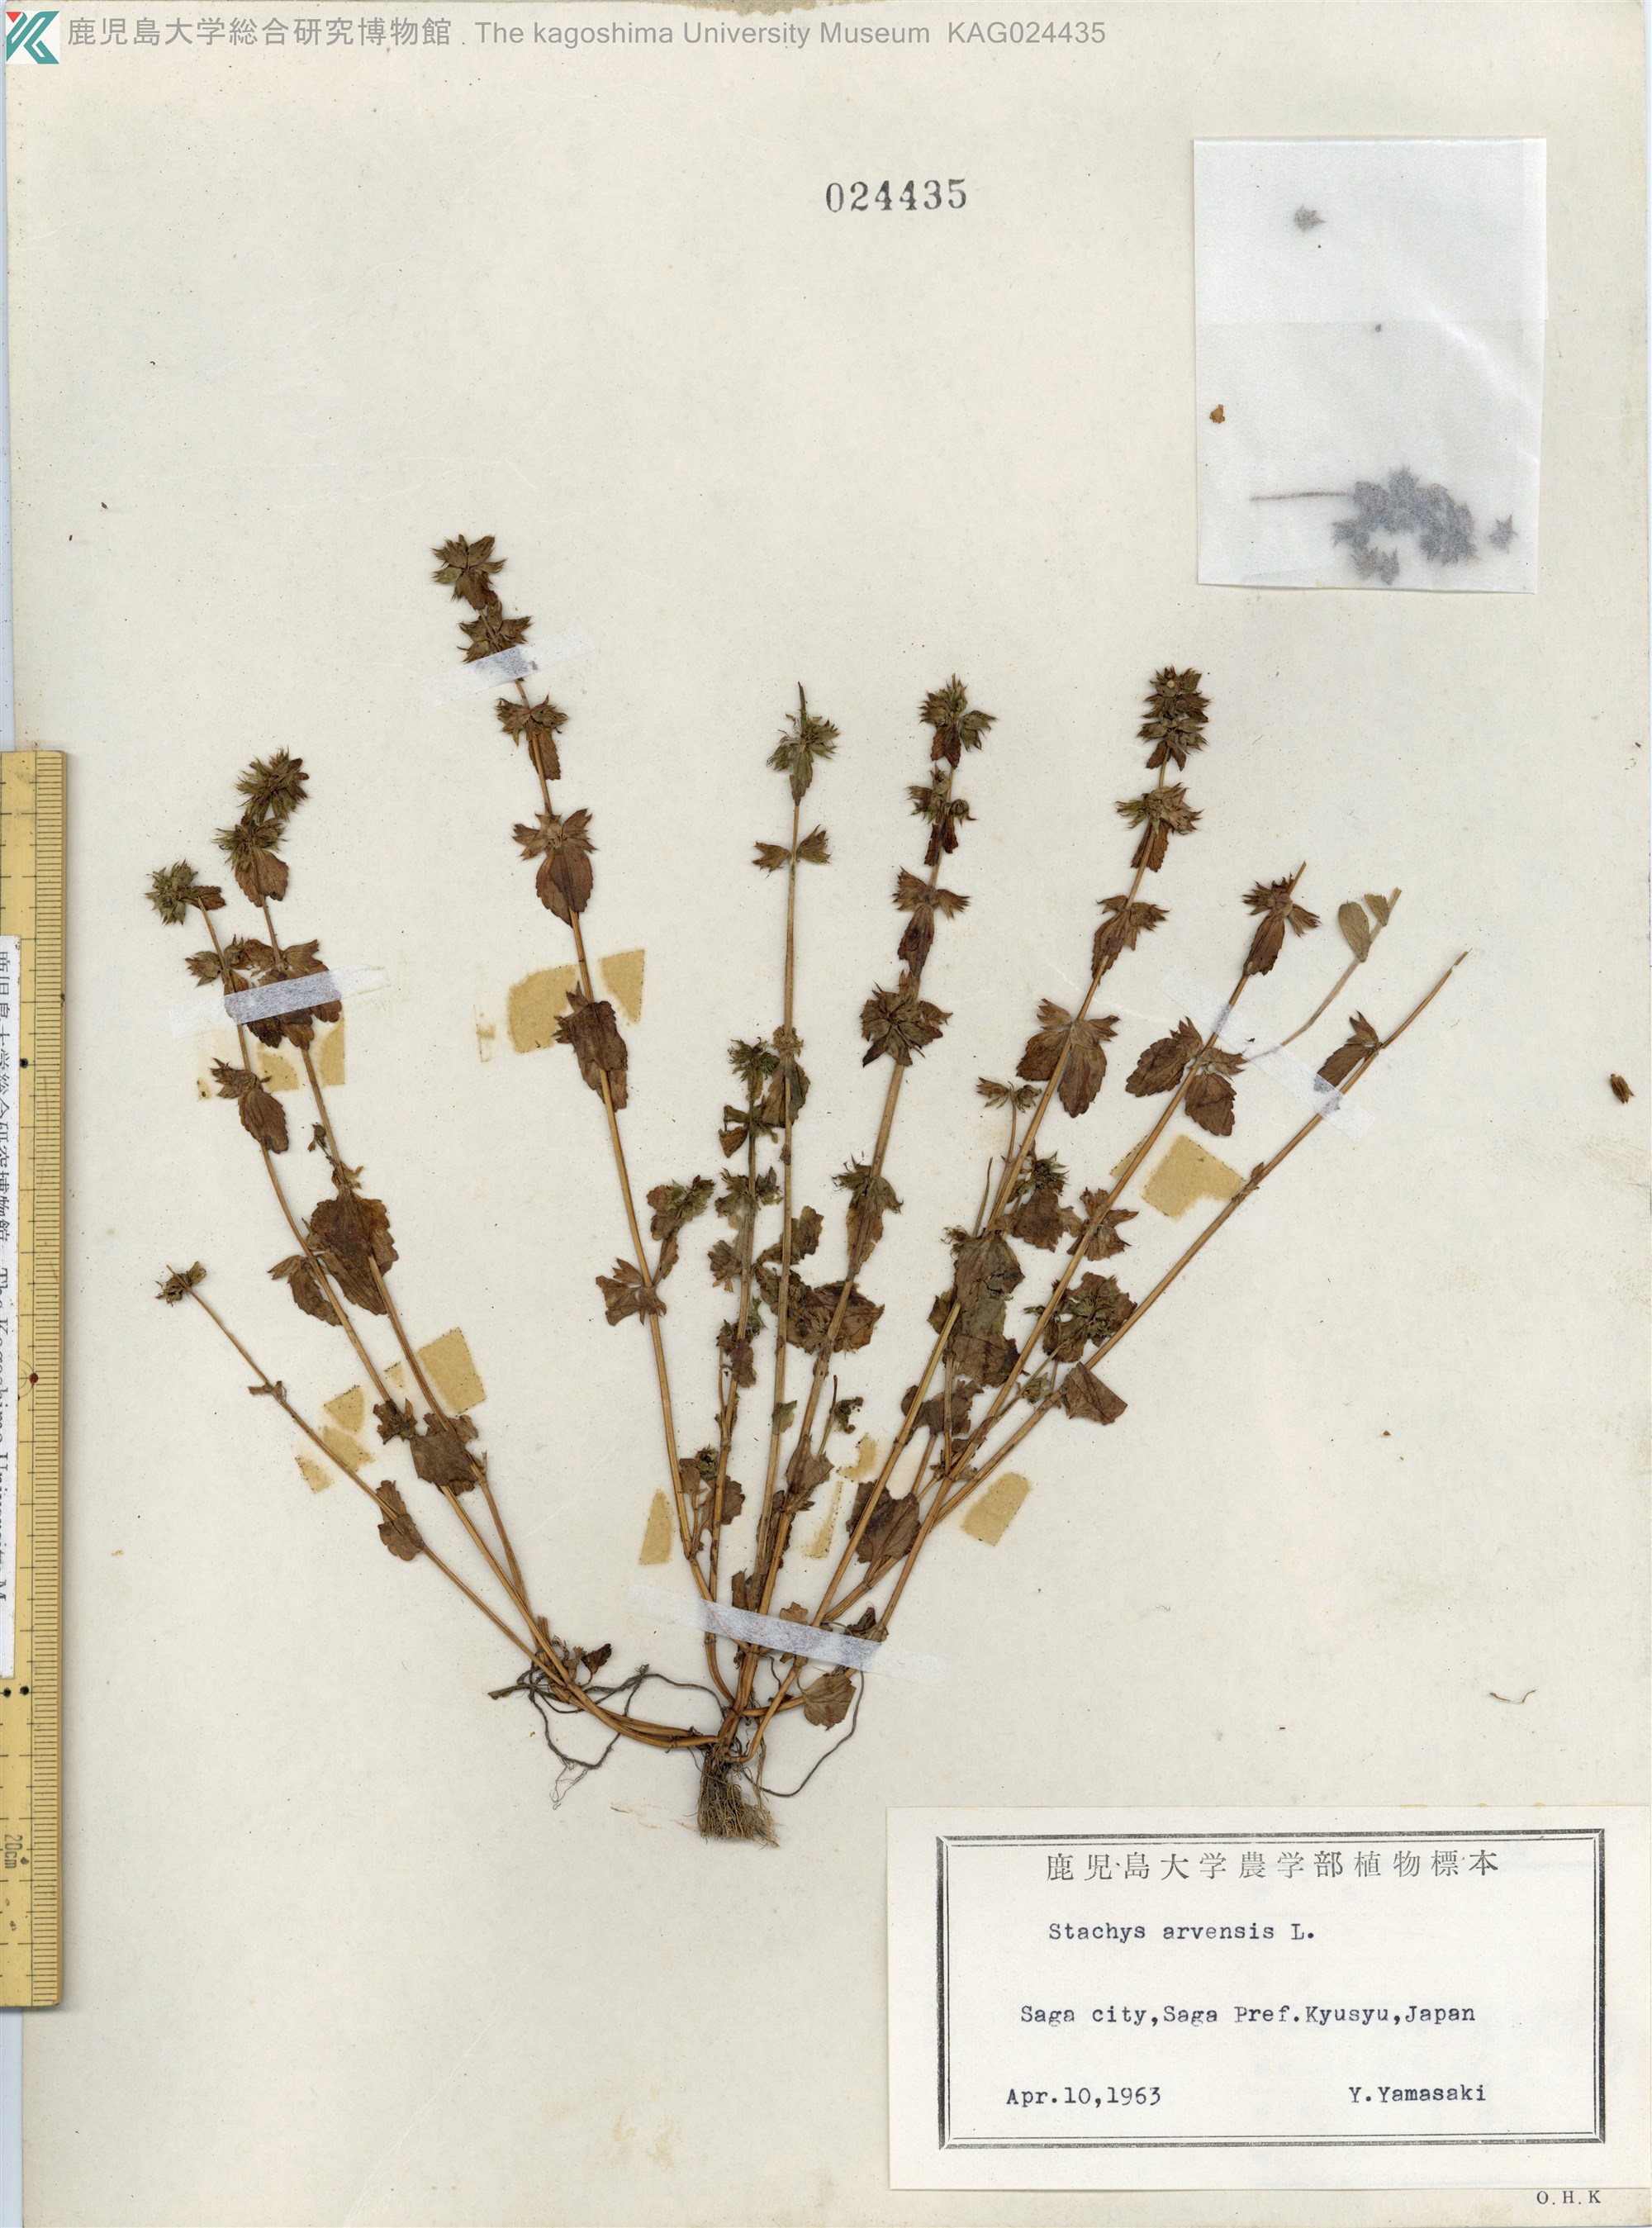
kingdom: Plantae
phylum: Tracheophyta
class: Magnoliopsida
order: Lamiales
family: Lamiaceae
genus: Stachys
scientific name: Stachys arvensis
